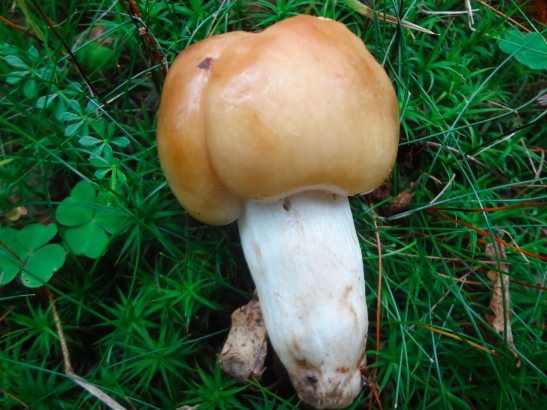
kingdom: Fungi
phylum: Basidiomycota
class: Agaricomycetes
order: Russulales
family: Russulaceae
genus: Russula
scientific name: Russula grata
